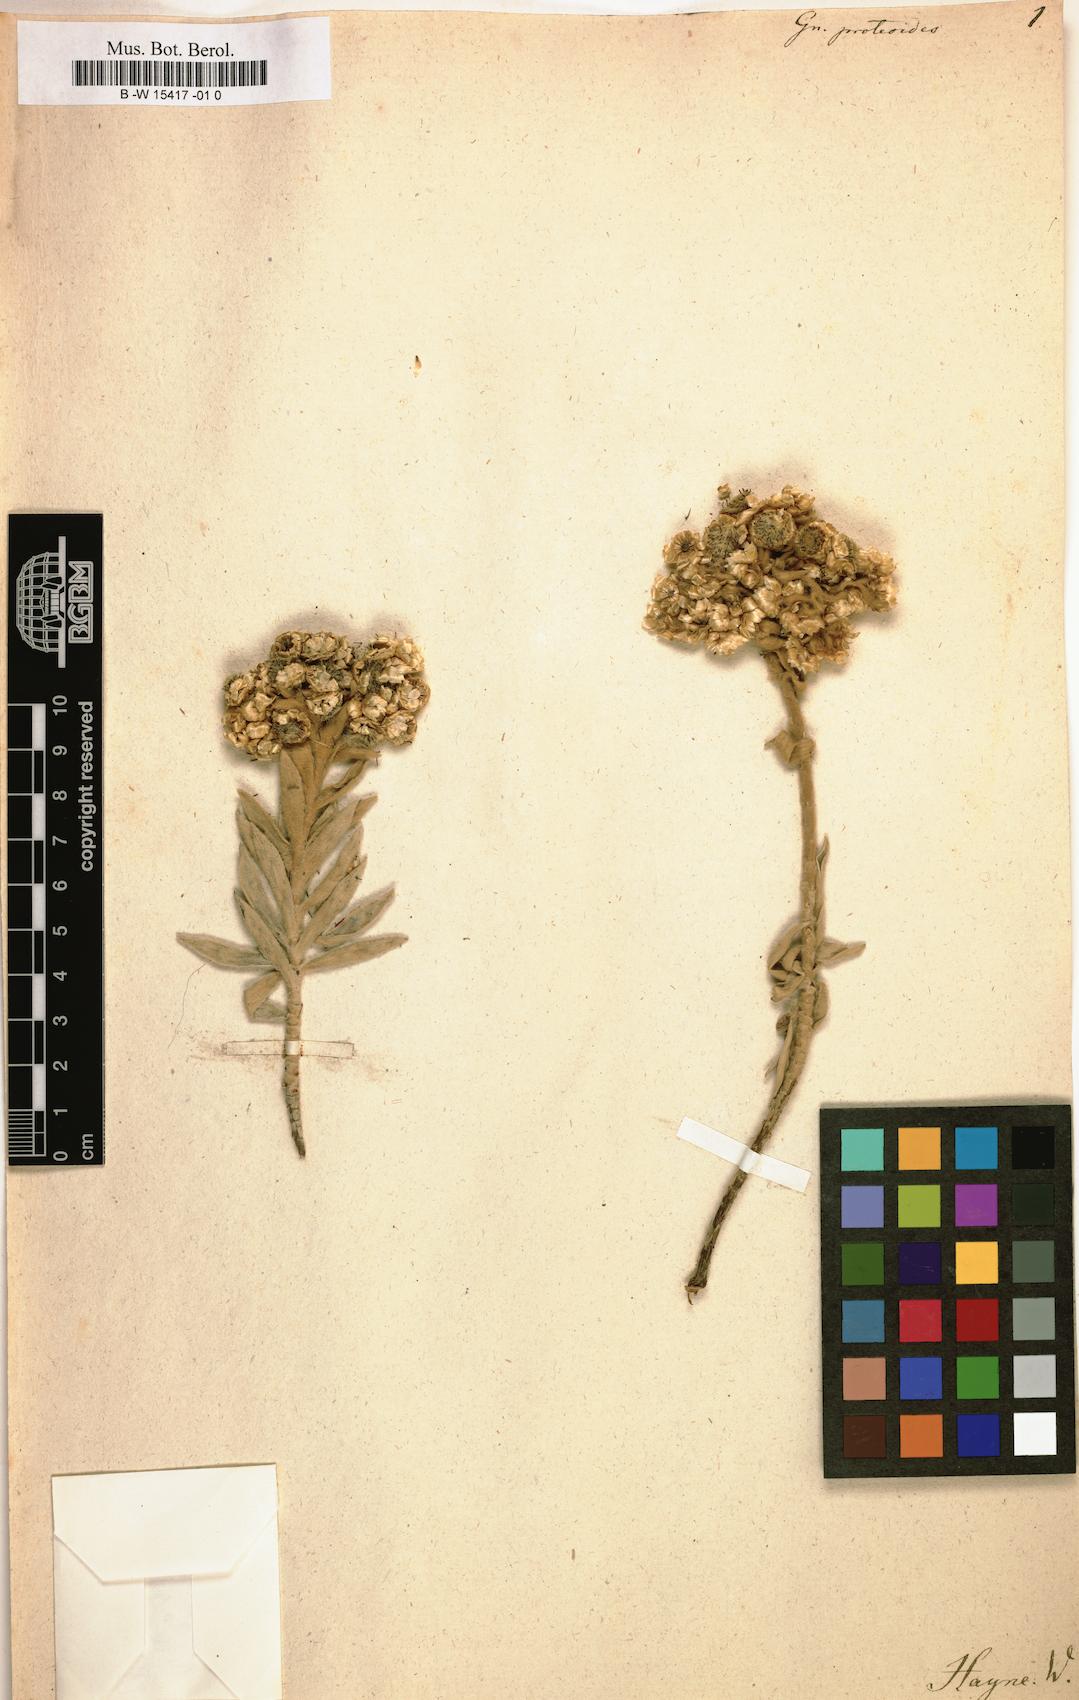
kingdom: Plantae
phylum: Tracheophyta
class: Magnoliopsida
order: Asterales
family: Asteraceae
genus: Helichrysum
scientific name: Helichrysum
